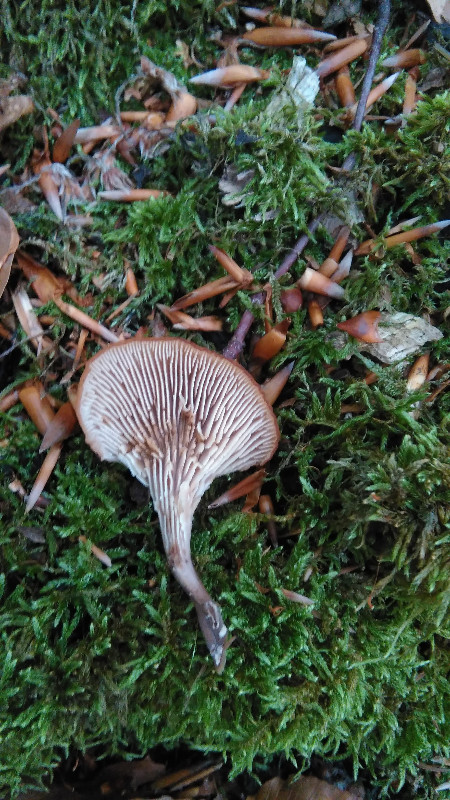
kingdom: Fungi
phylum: Basidiomycota
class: Agaricomycetes
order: Russulales
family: Auriscalpiaceae
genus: Lentinellus
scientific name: Lentinellus cochleatus
